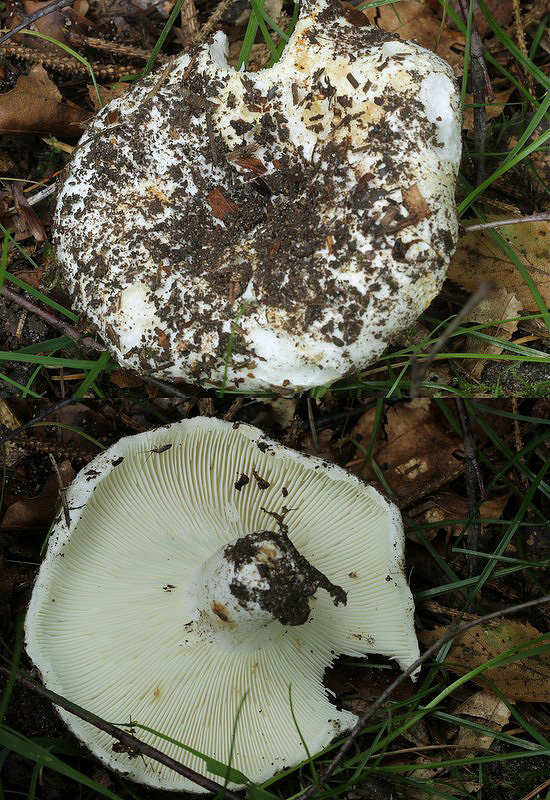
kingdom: Fungi
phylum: Basidiomycota
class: Agaricomycetes
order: Russulales
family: Russulaceae
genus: Russula
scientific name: Russula chloroides
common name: grønhalset tragt-skørhat
